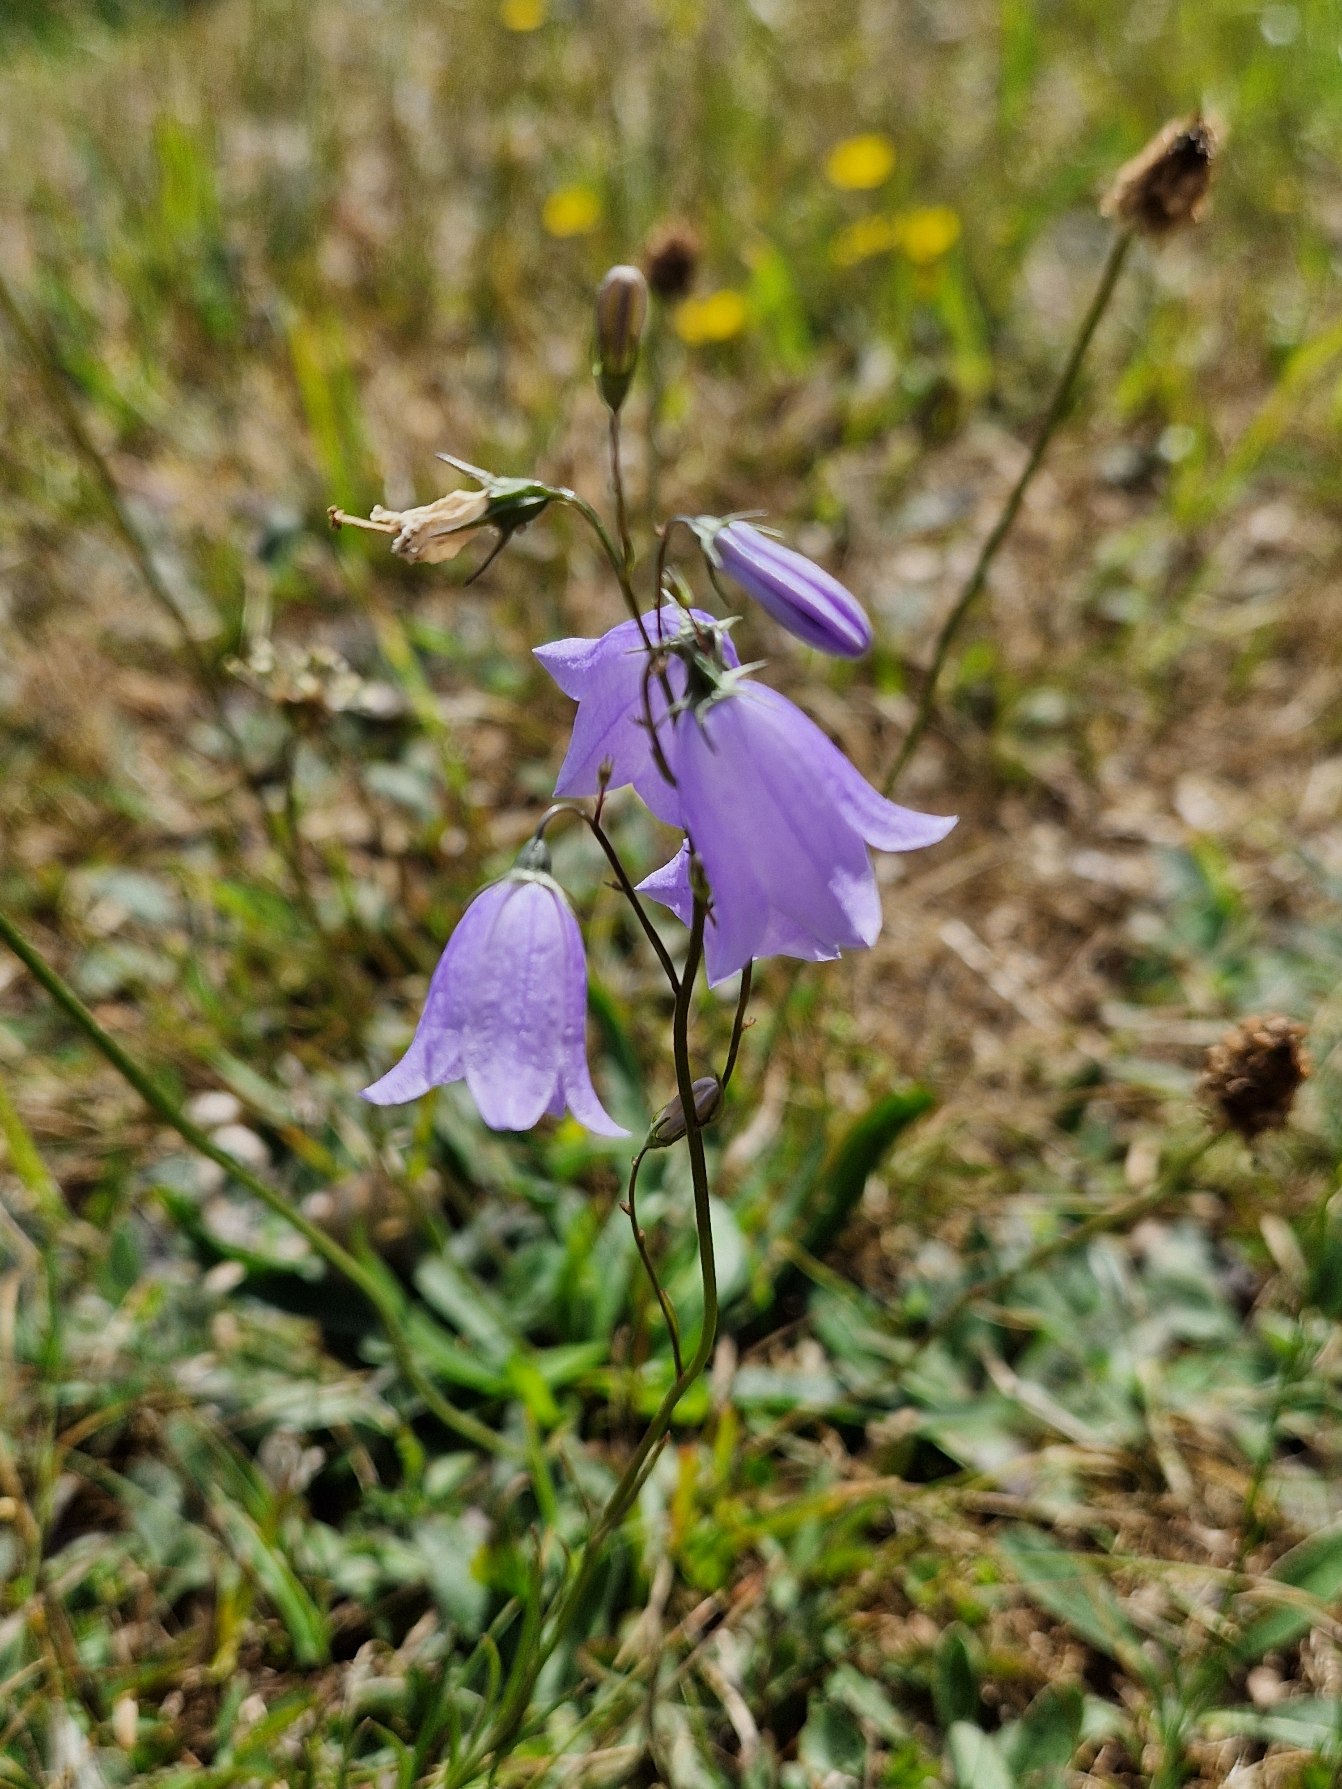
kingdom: Plantae
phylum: Tracheophyta
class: Magnoliopsida
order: Asterales
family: Campanulaceae
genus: Campanula
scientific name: Campanula rotundifolia
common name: Liden klokke
